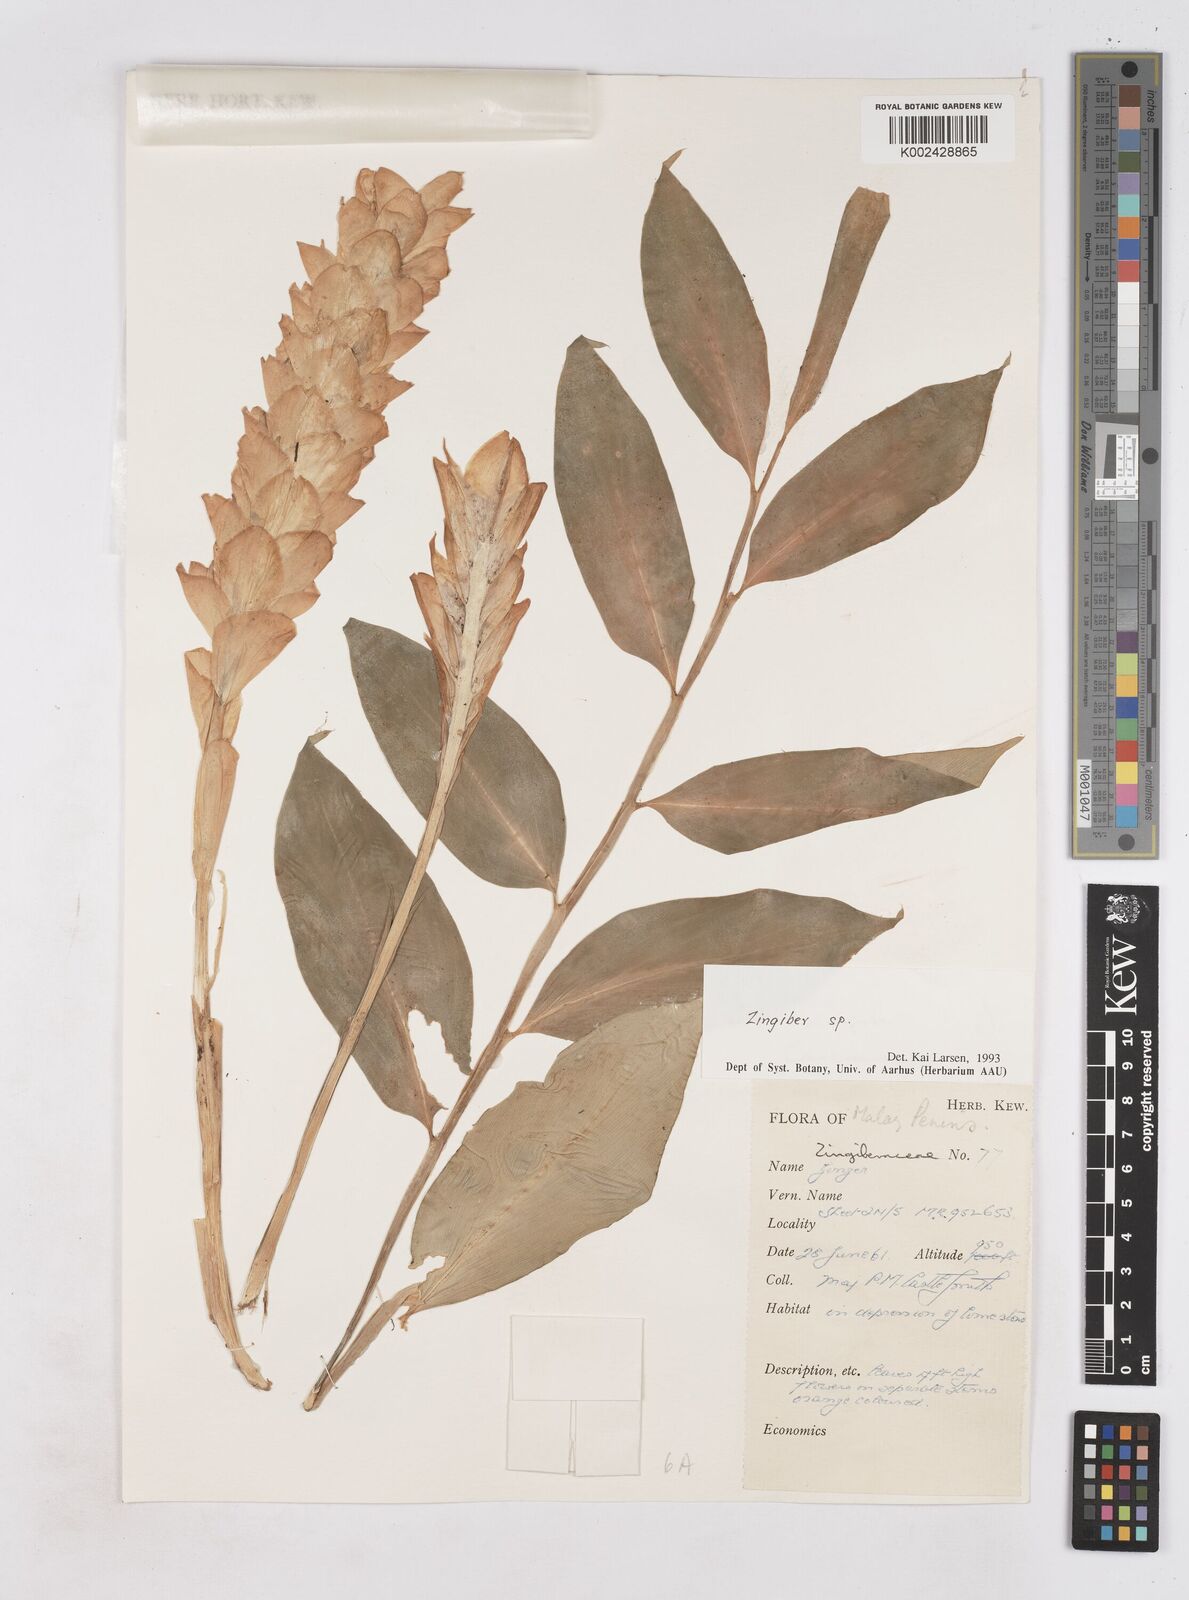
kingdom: Plantae
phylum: Tracheophyta
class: Liliopsida
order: Zingiberales
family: Zingiberaceae
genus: Zingiber
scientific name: Zingiber sulphureum
